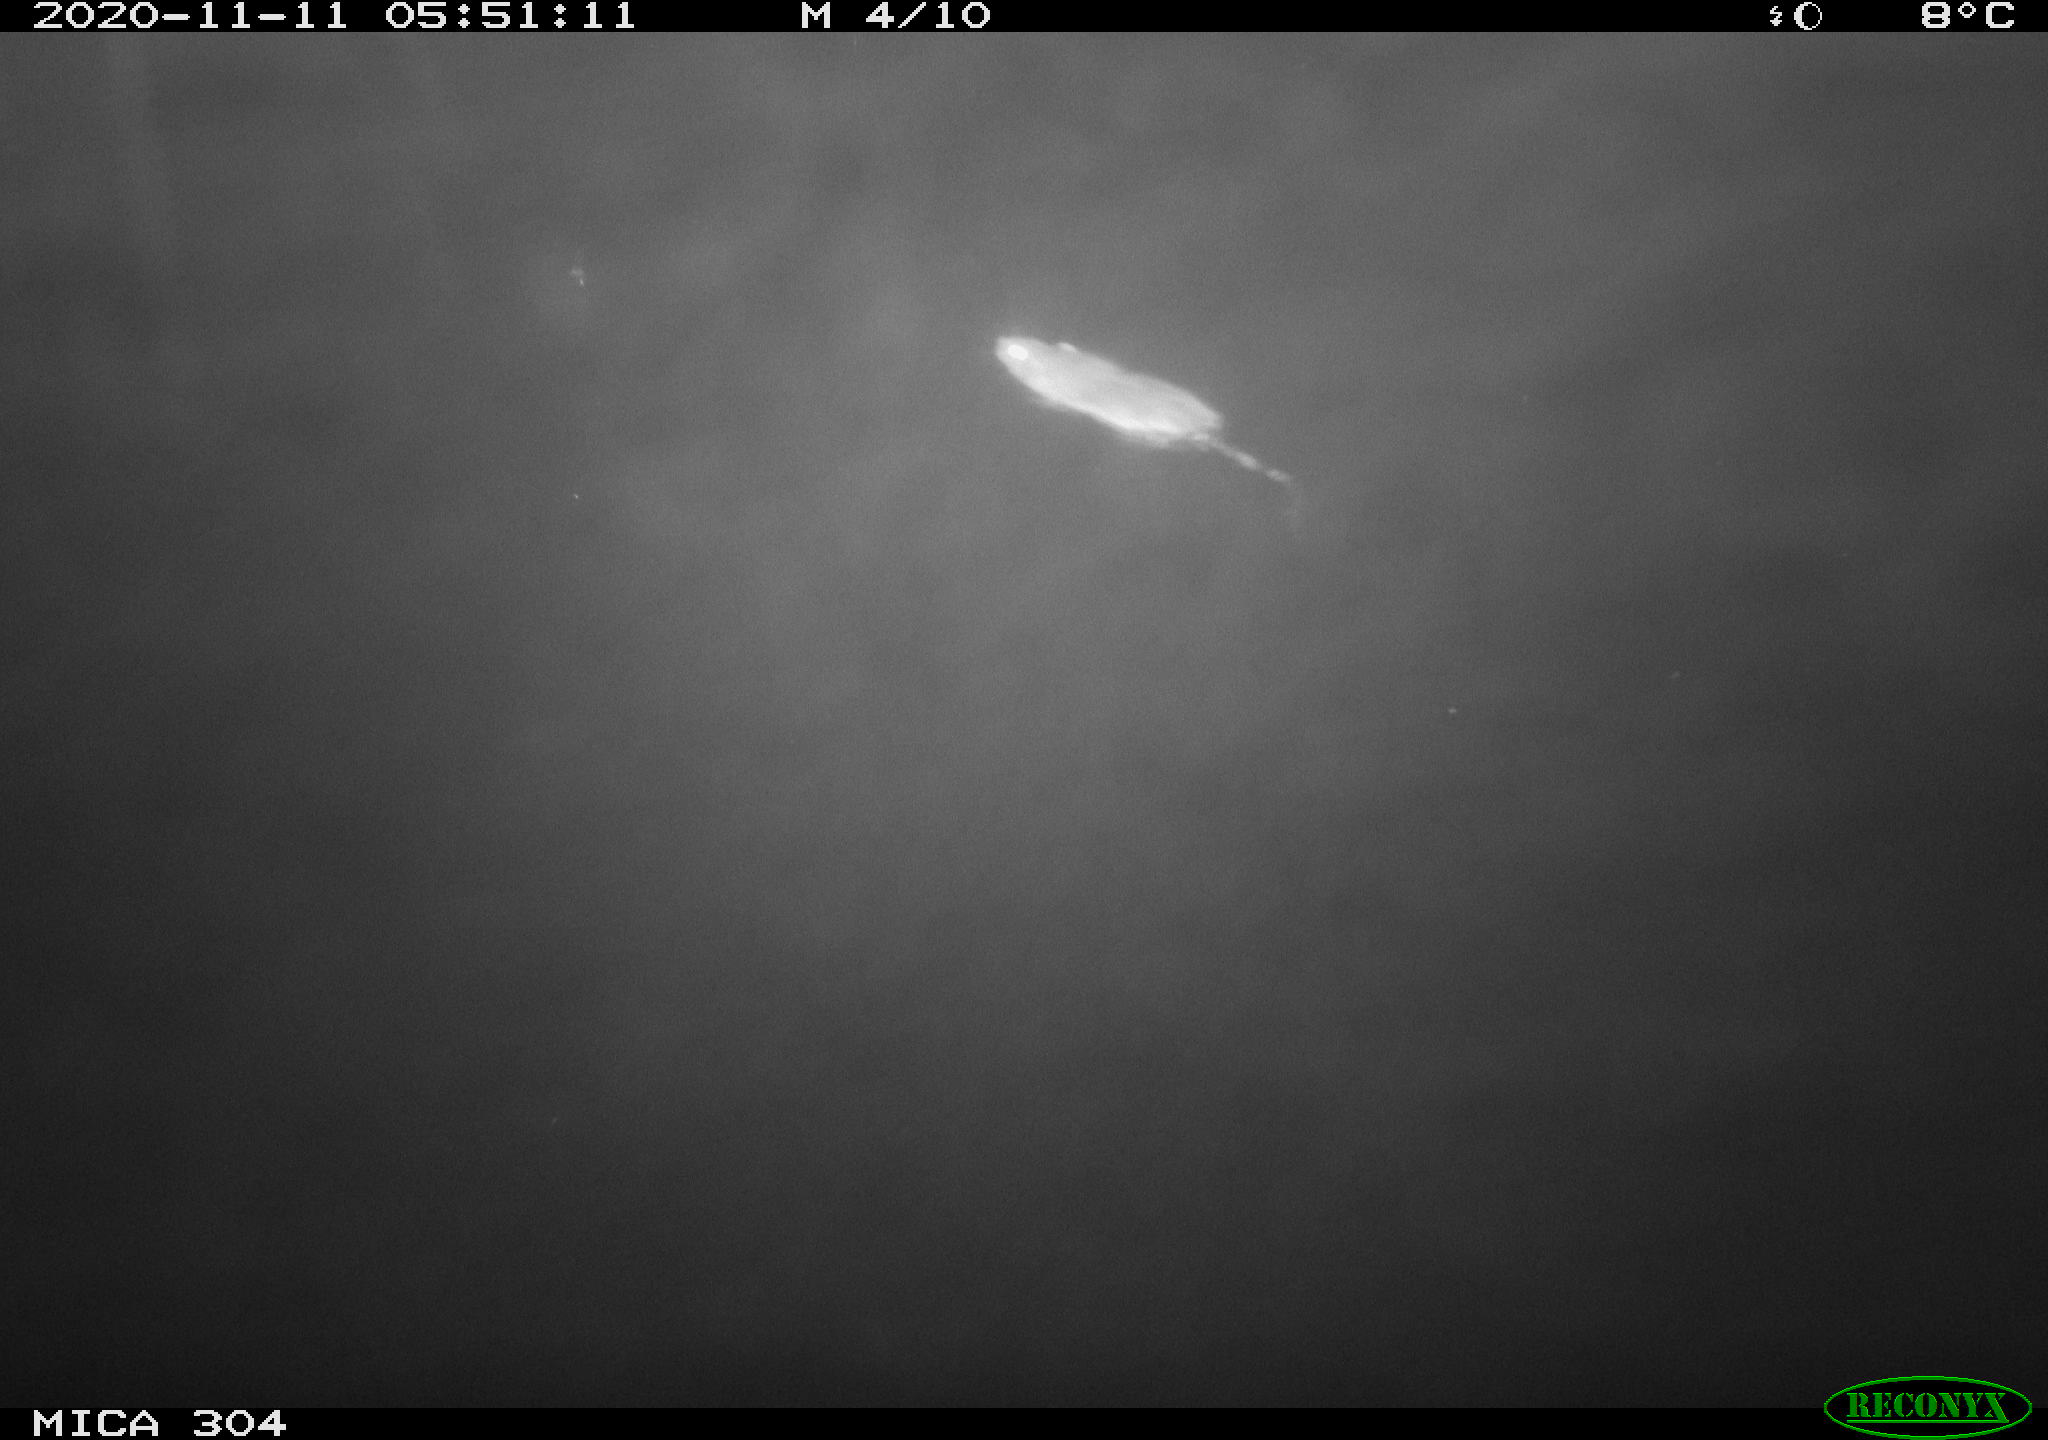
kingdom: Animalia
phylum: Chordata
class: Mammalia
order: Rodentia
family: Muridae
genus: Rattus
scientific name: Rattus norvegicus
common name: Brown rat
